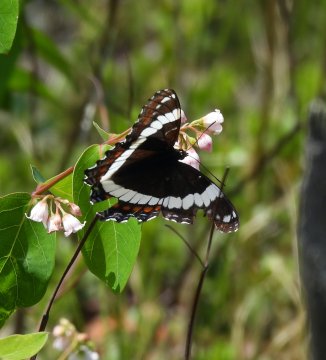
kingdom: Animalia
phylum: Arthropoda
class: Insecta
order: Lepidoptera
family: Nymphalidae
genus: Limenitis
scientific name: Limenitis arthemis
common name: Red-spotted Admiral
